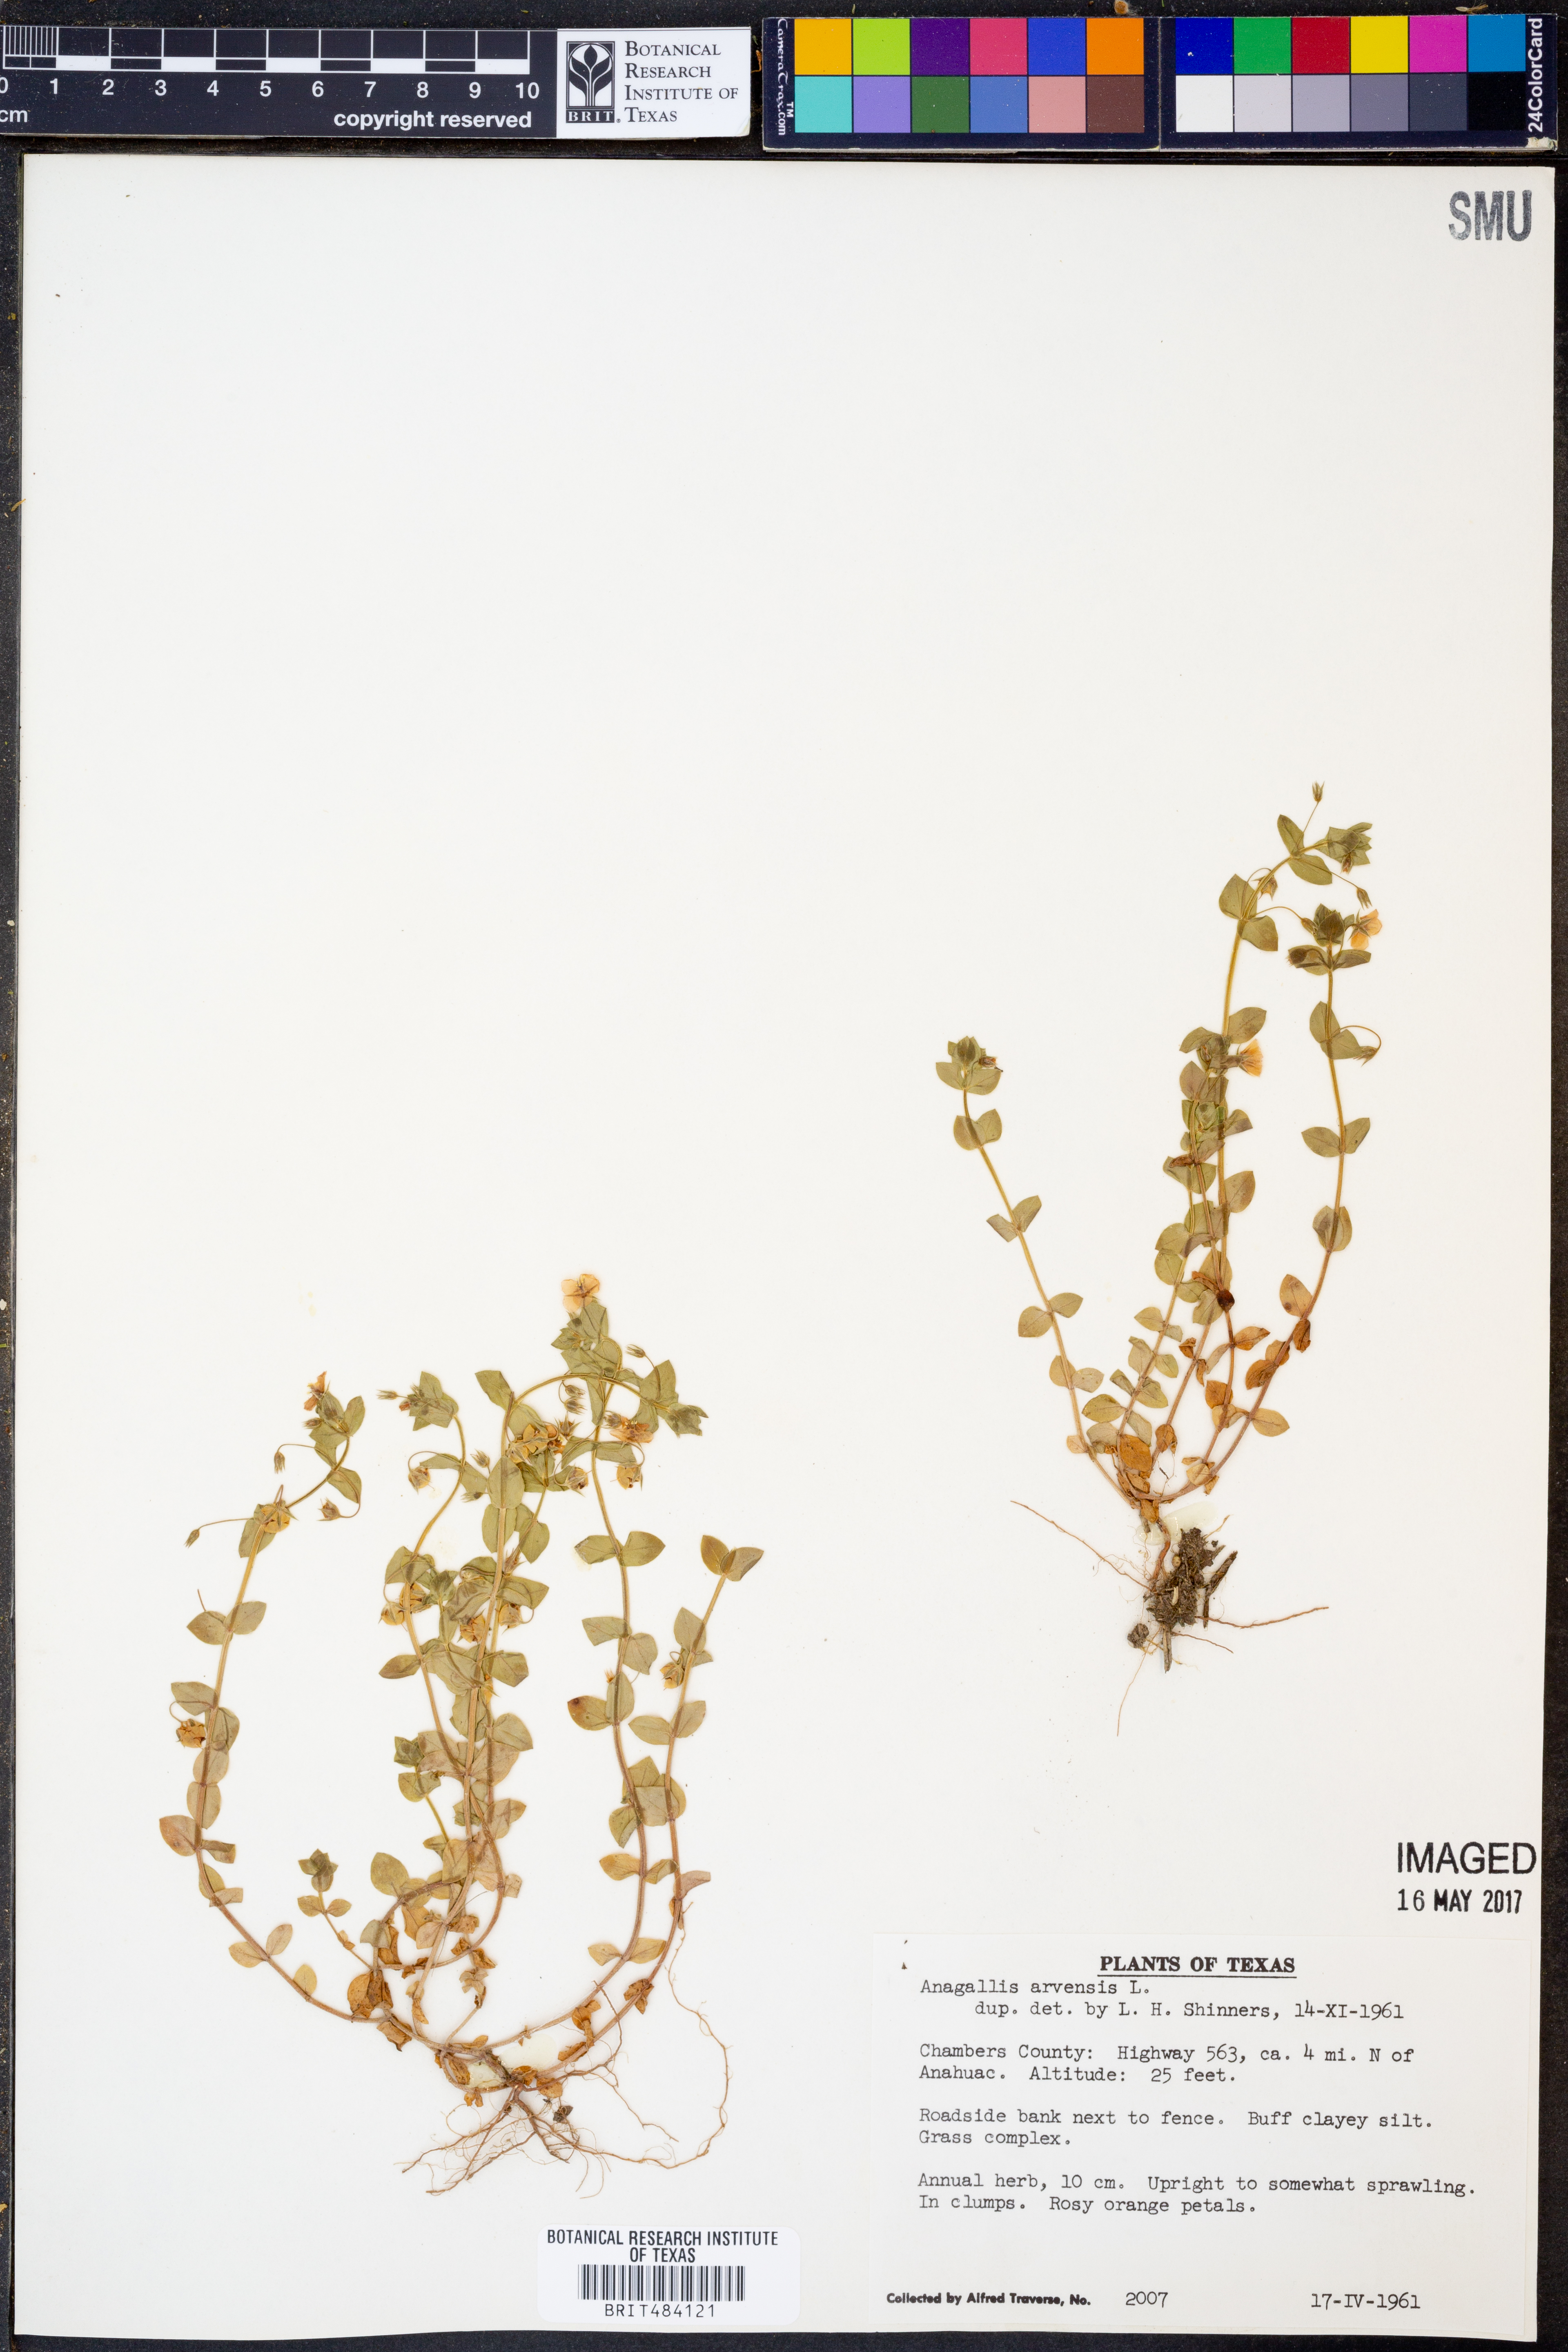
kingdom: Plantae
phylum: Tracheophyta
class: Magnoliopsida
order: Ericales
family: Primulaceae
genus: Lysimachia
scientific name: Lysimachia arvensis
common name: Scarlet pimpernel
